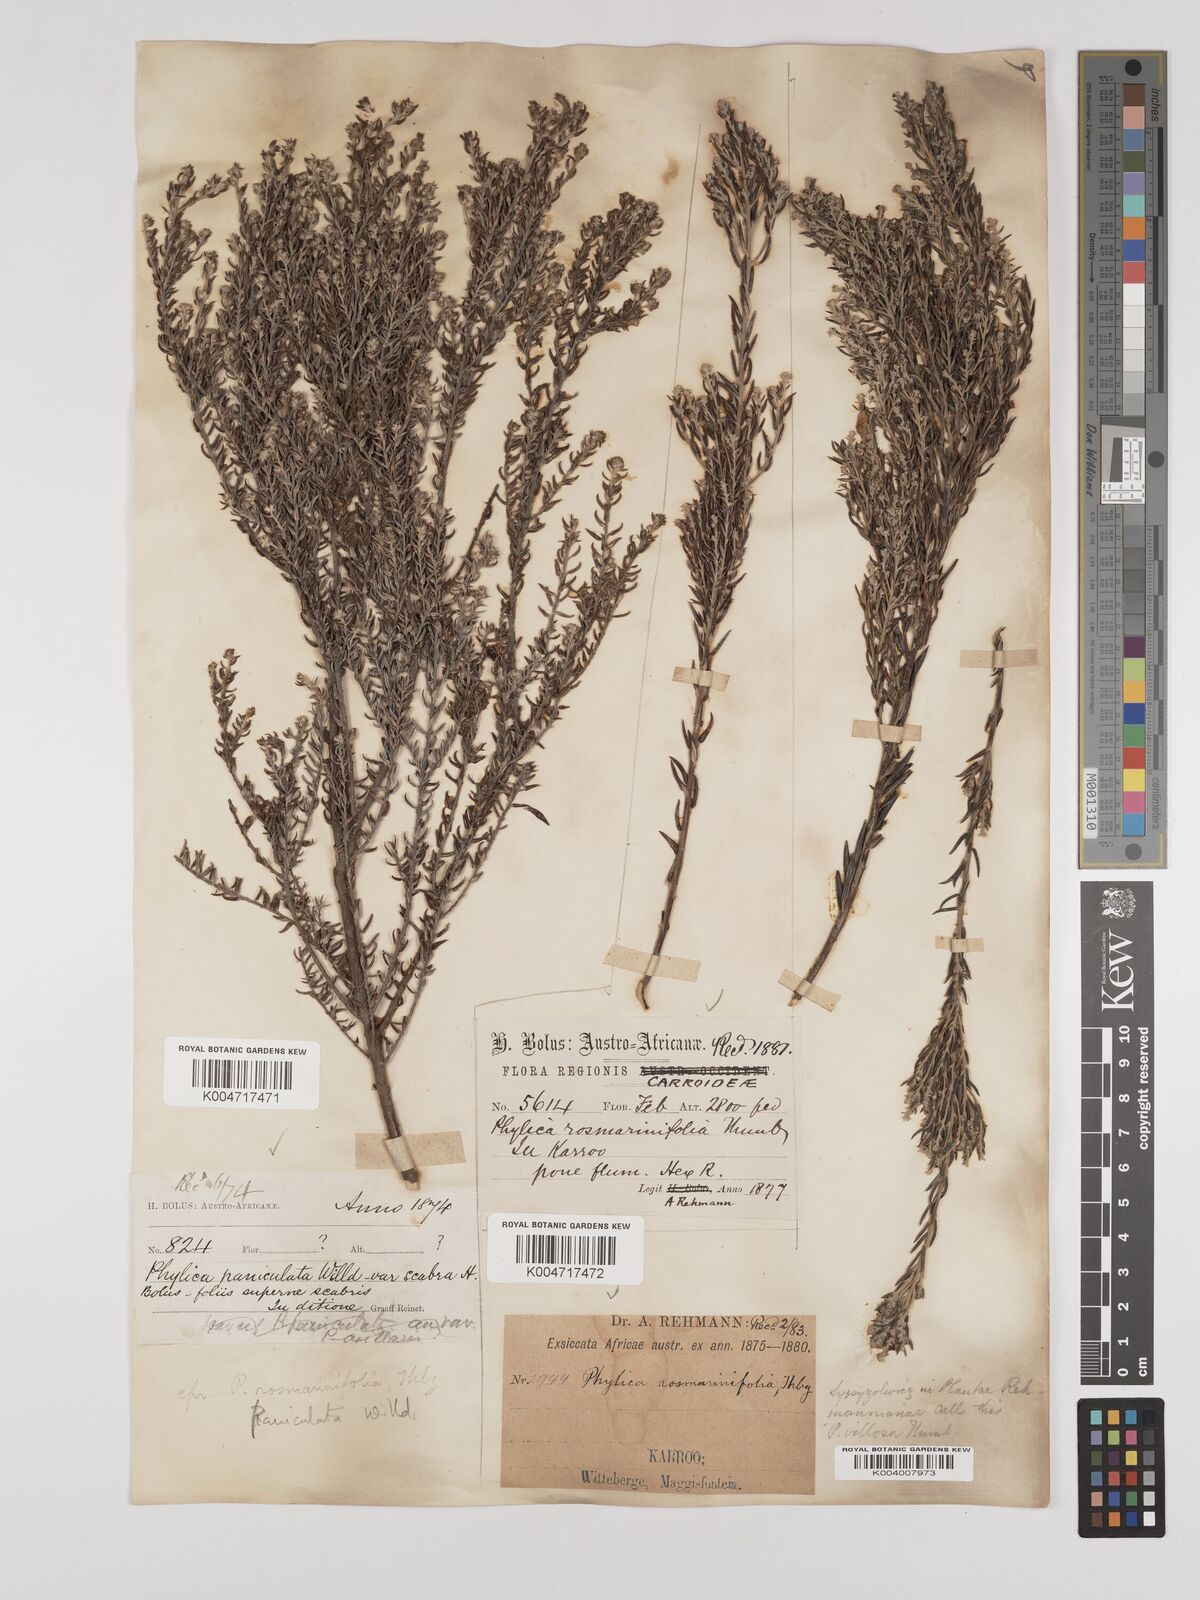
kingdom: Plantae
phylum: Tracheophyta
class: Magnoliopsida
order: Rosales
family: Rhamnaceae
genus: Phylica
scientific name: Phylica paniculata
